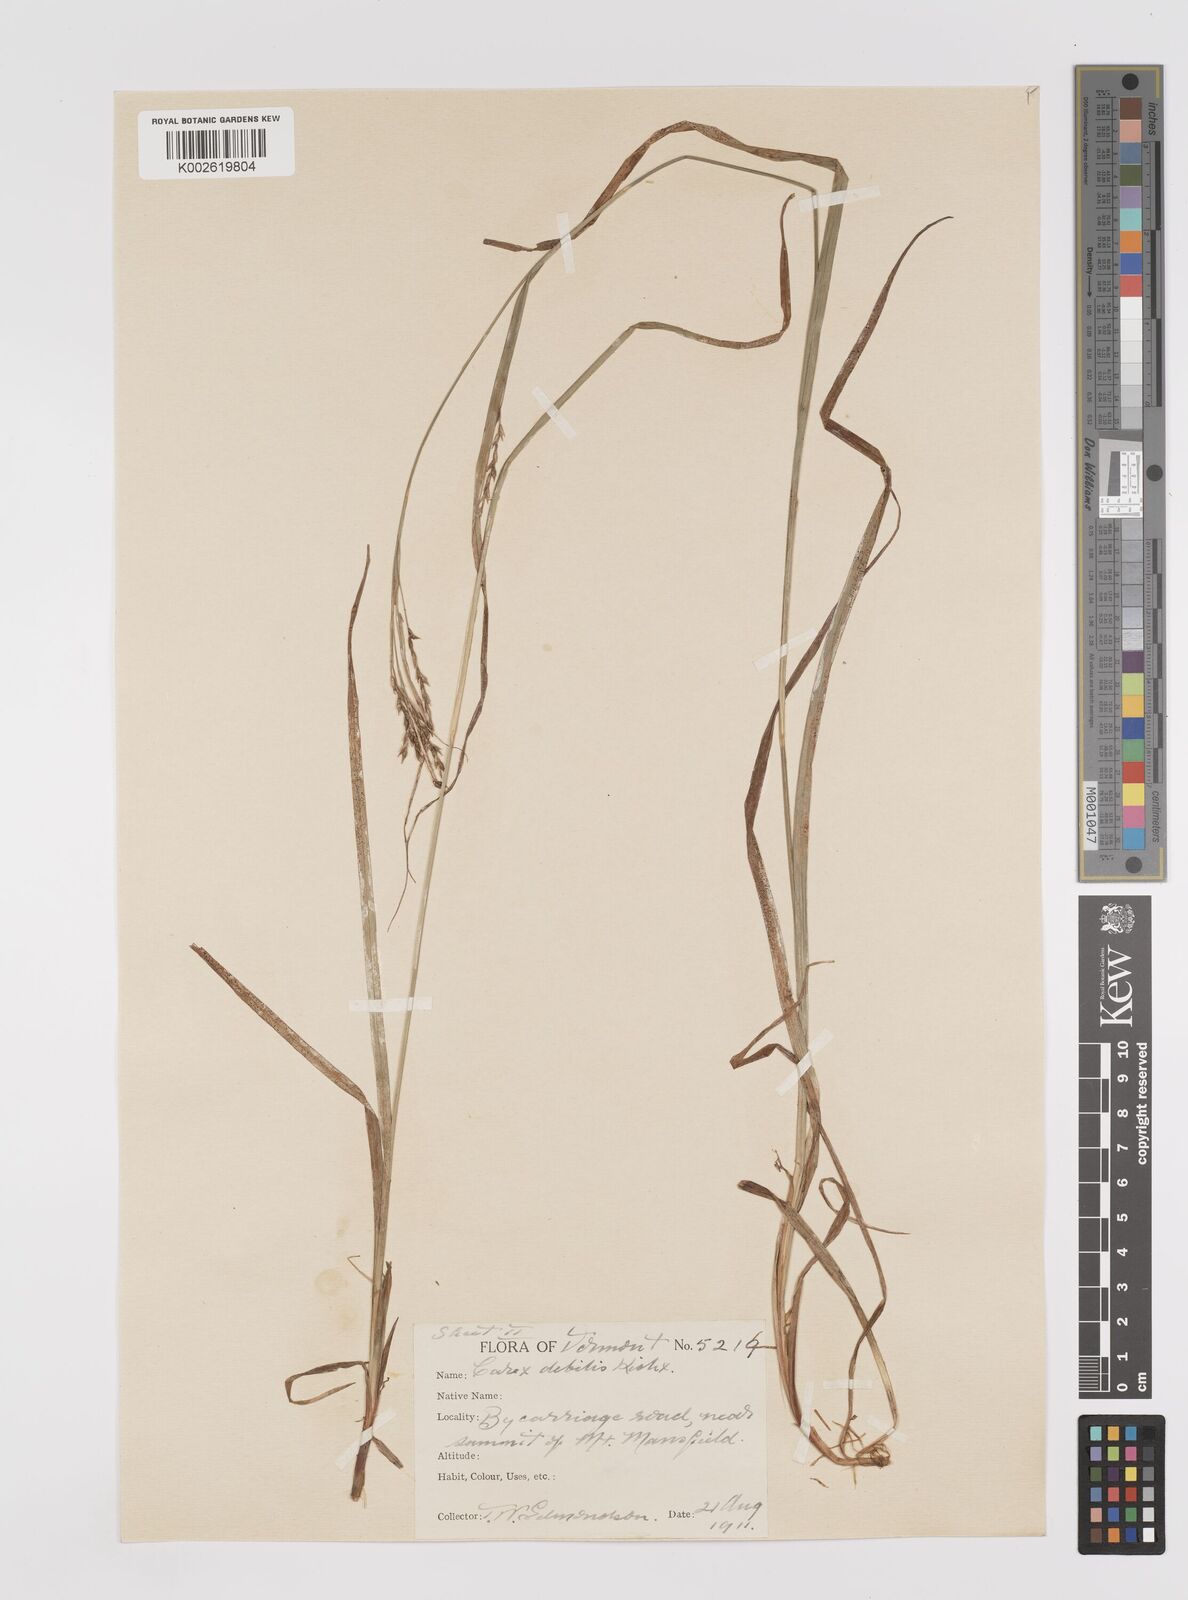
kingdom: Plantae
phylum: Tracheophyta
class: Liliopsida
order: Poales
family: Cyperaceae
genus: Carex
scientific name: Carex debilis
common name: White-edge sedge
